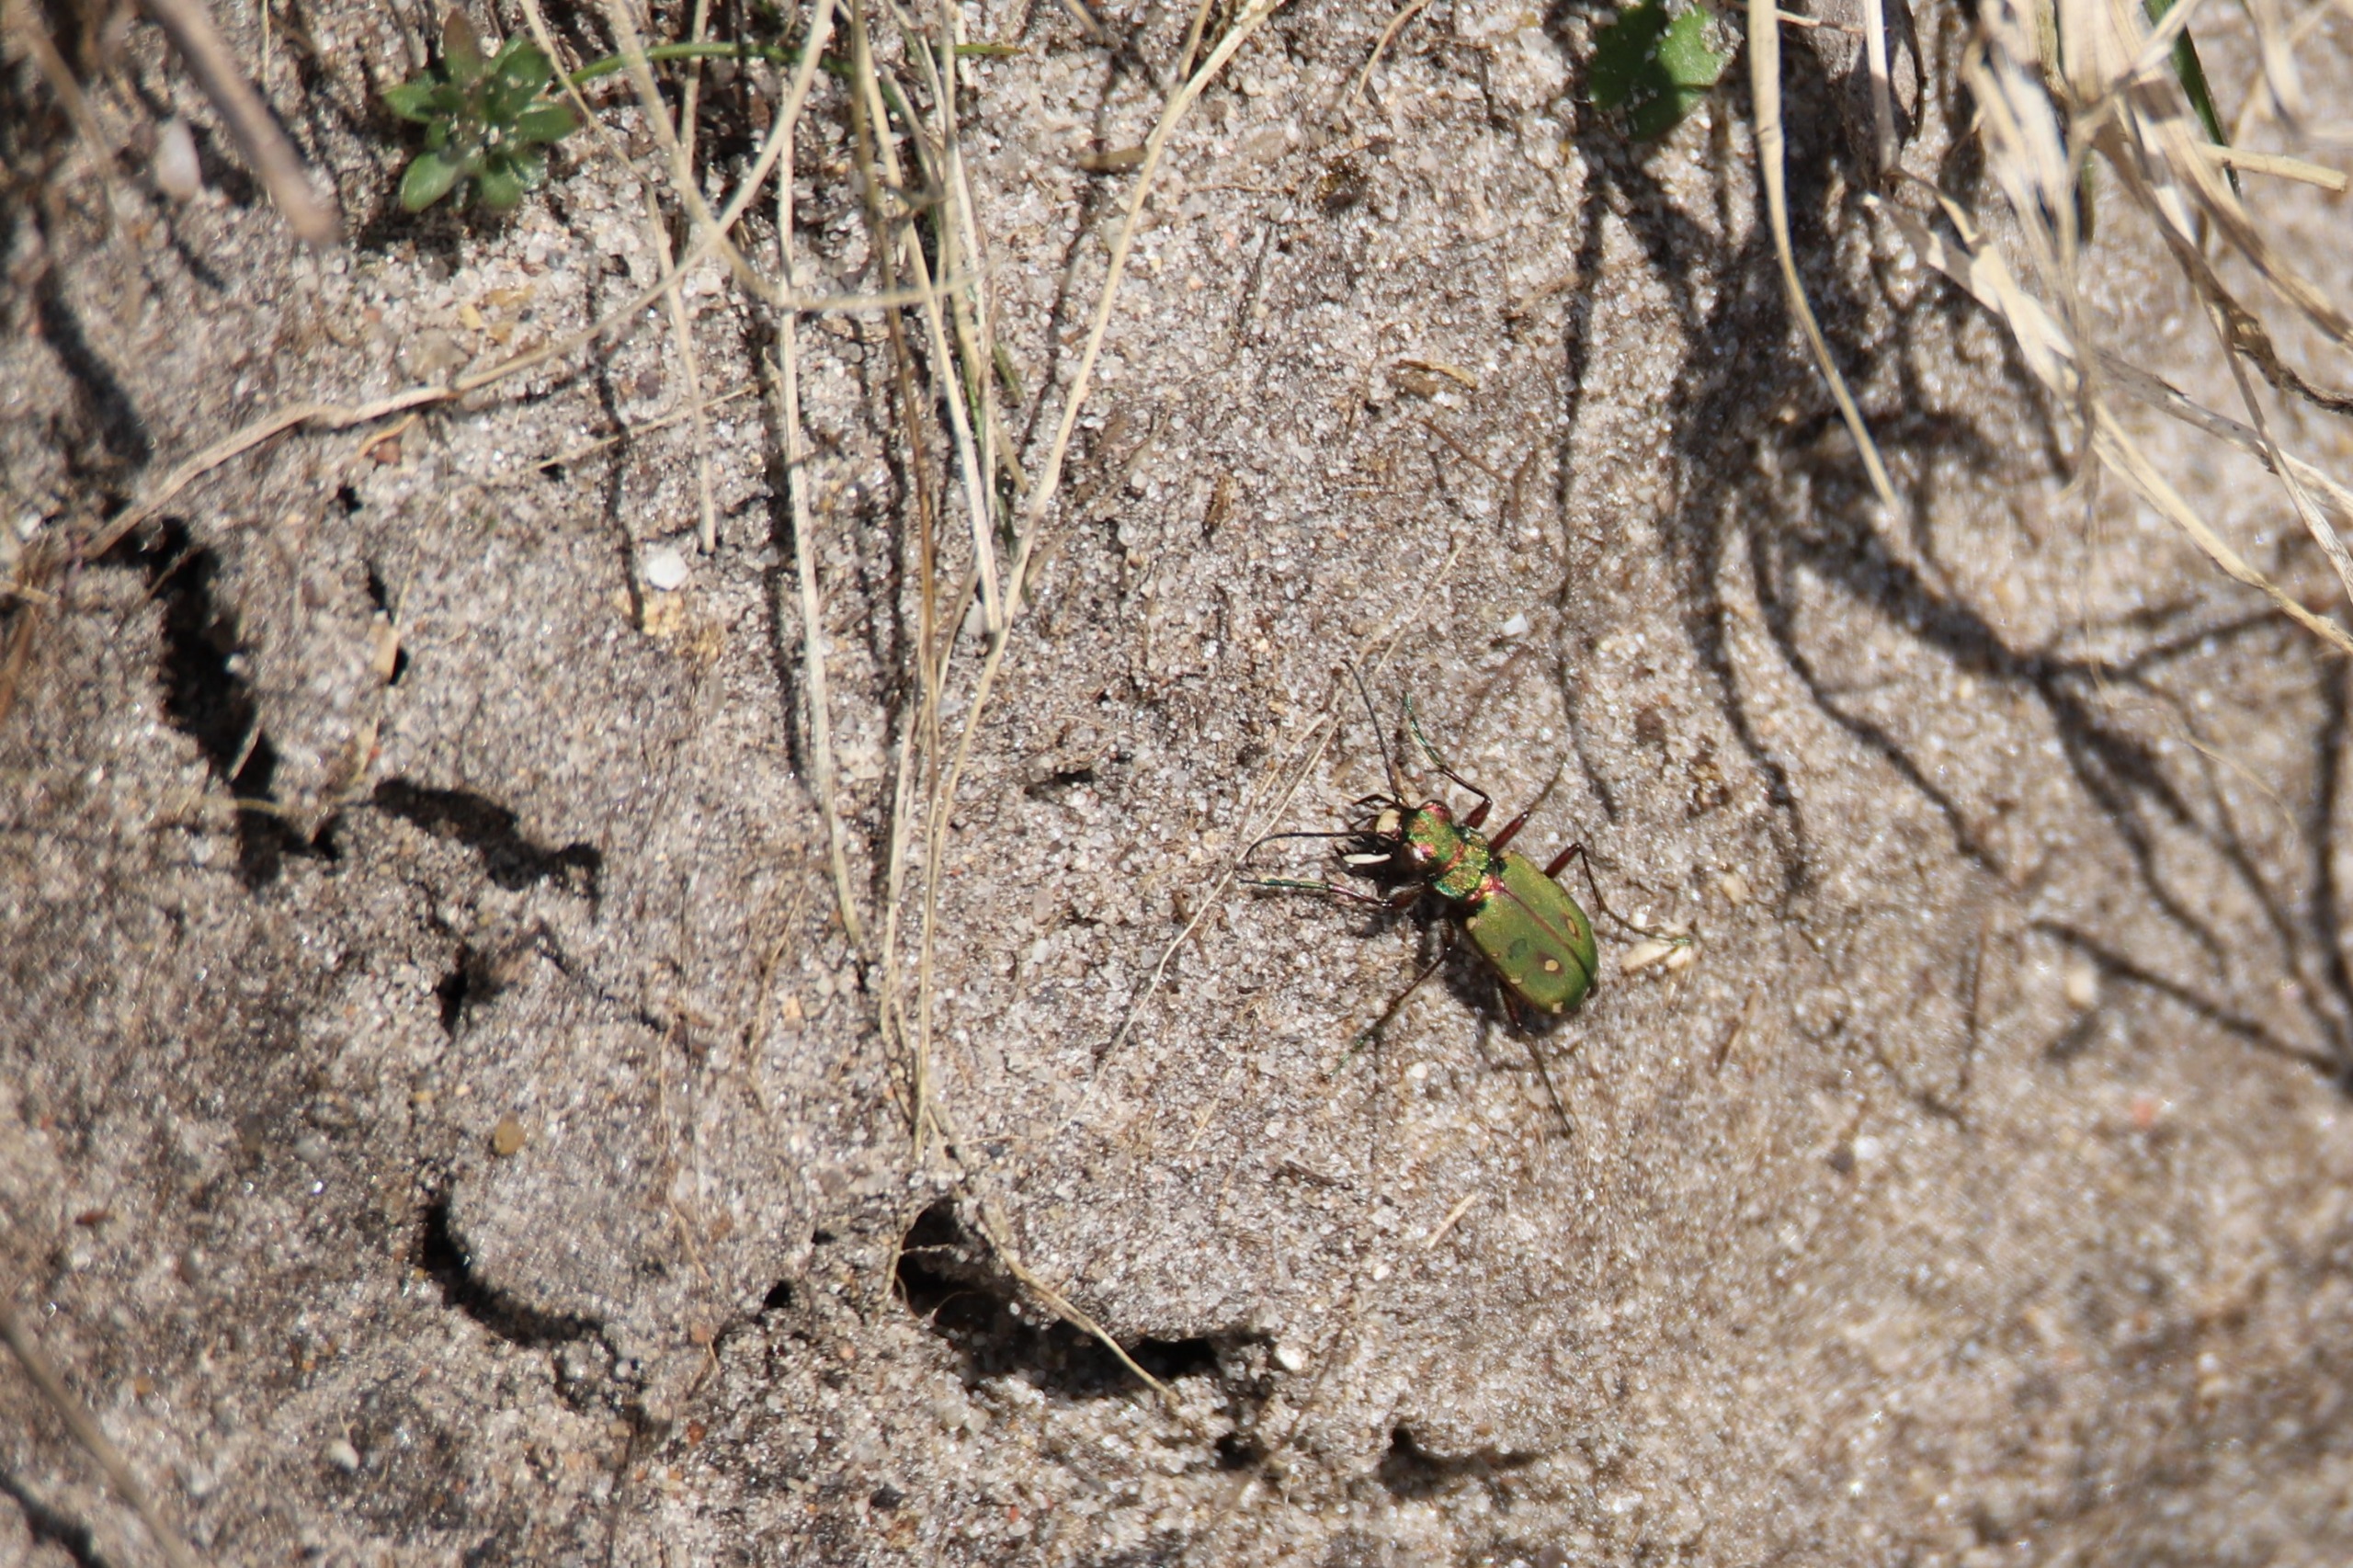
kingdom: Animalia
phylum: Arthropoda
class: Insecta
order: Coleoptera
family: Carabidae
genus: Cicindela
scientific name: Cicindela campestris
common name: Grøn sandspringer
